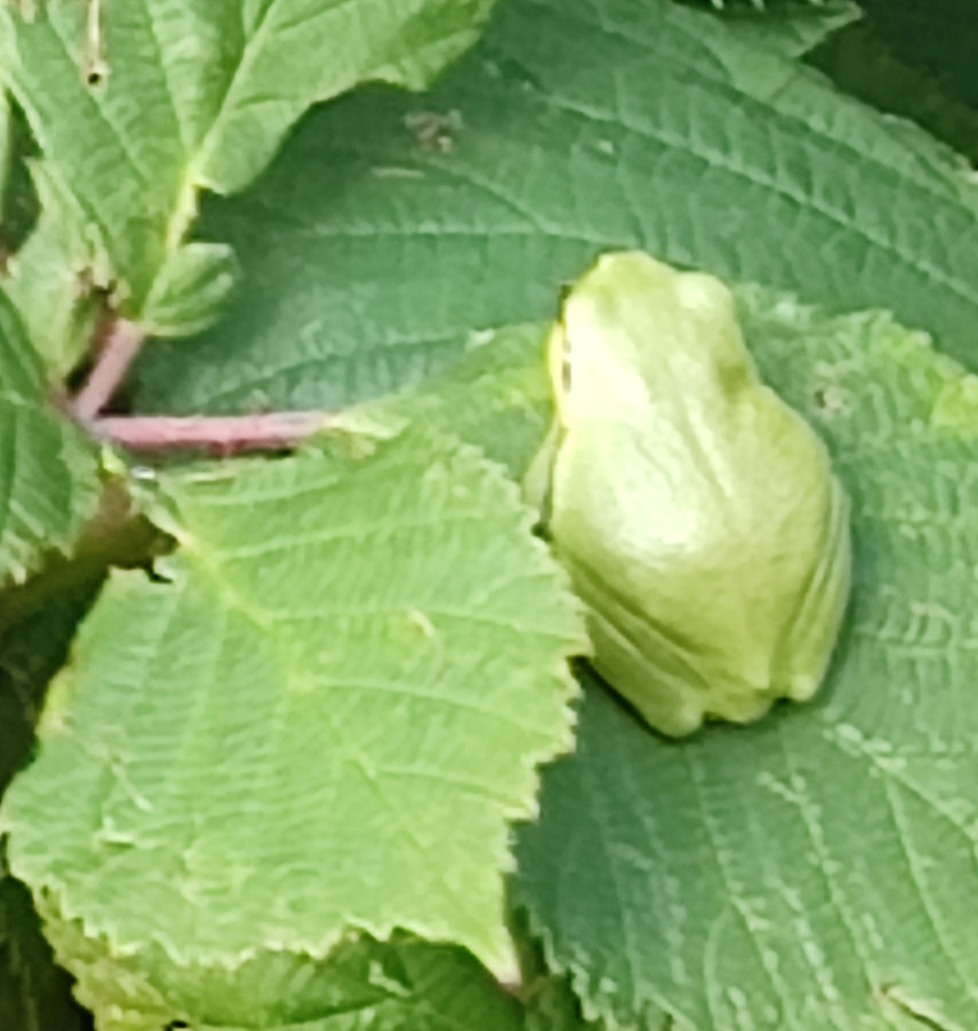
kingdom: Animalia
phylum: Chordata
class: Amphibia
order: Anura
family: Hylidae
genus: Hyla
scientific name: Hyla arborea
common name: Løvfrø
